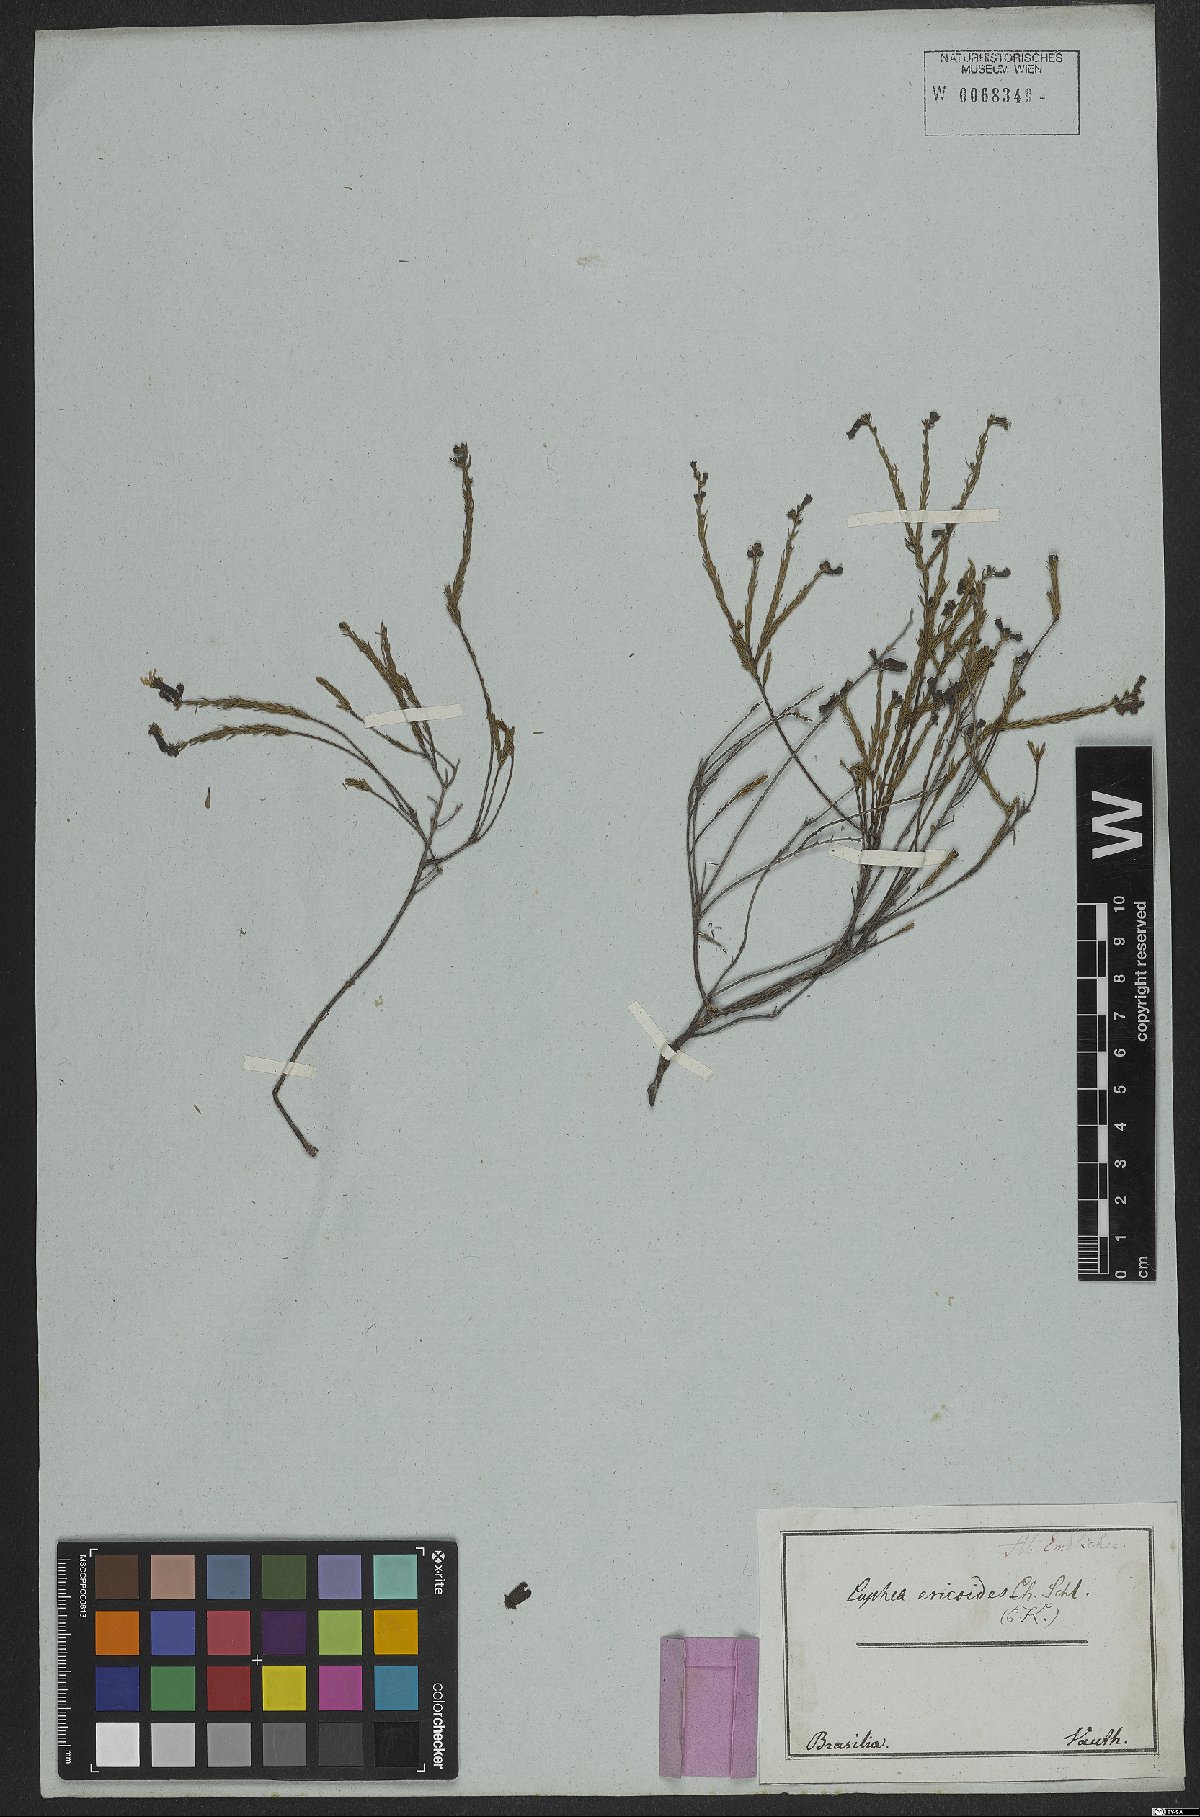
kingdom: Plantae
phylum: Tracheophyta
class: Magnoliopsida
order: Myrtales
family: Lythraceae
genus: Cuphea
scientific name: Cuphea ericoides
